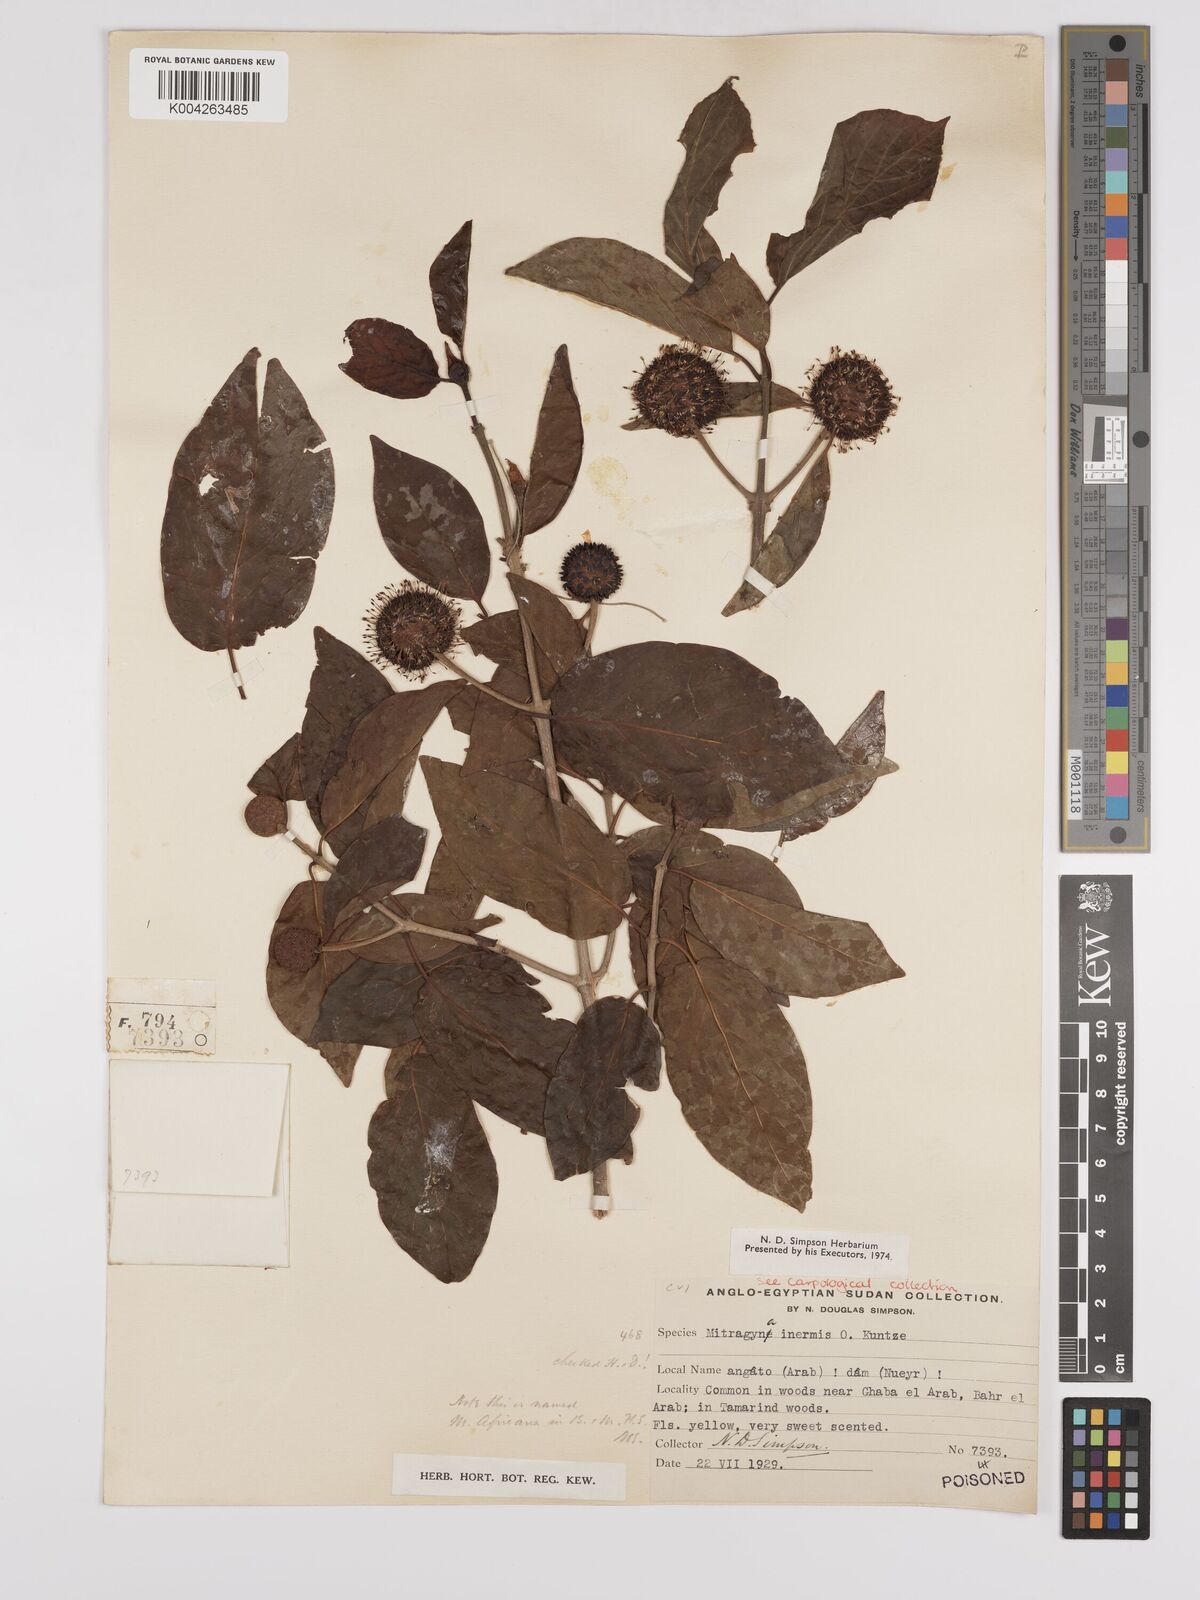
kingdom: Plantae
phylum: Tracheophyta
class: Magnoliopsida
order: Gentianales
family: Rubiaceae
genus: Mitragyna
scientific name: Mitragyna inermis
